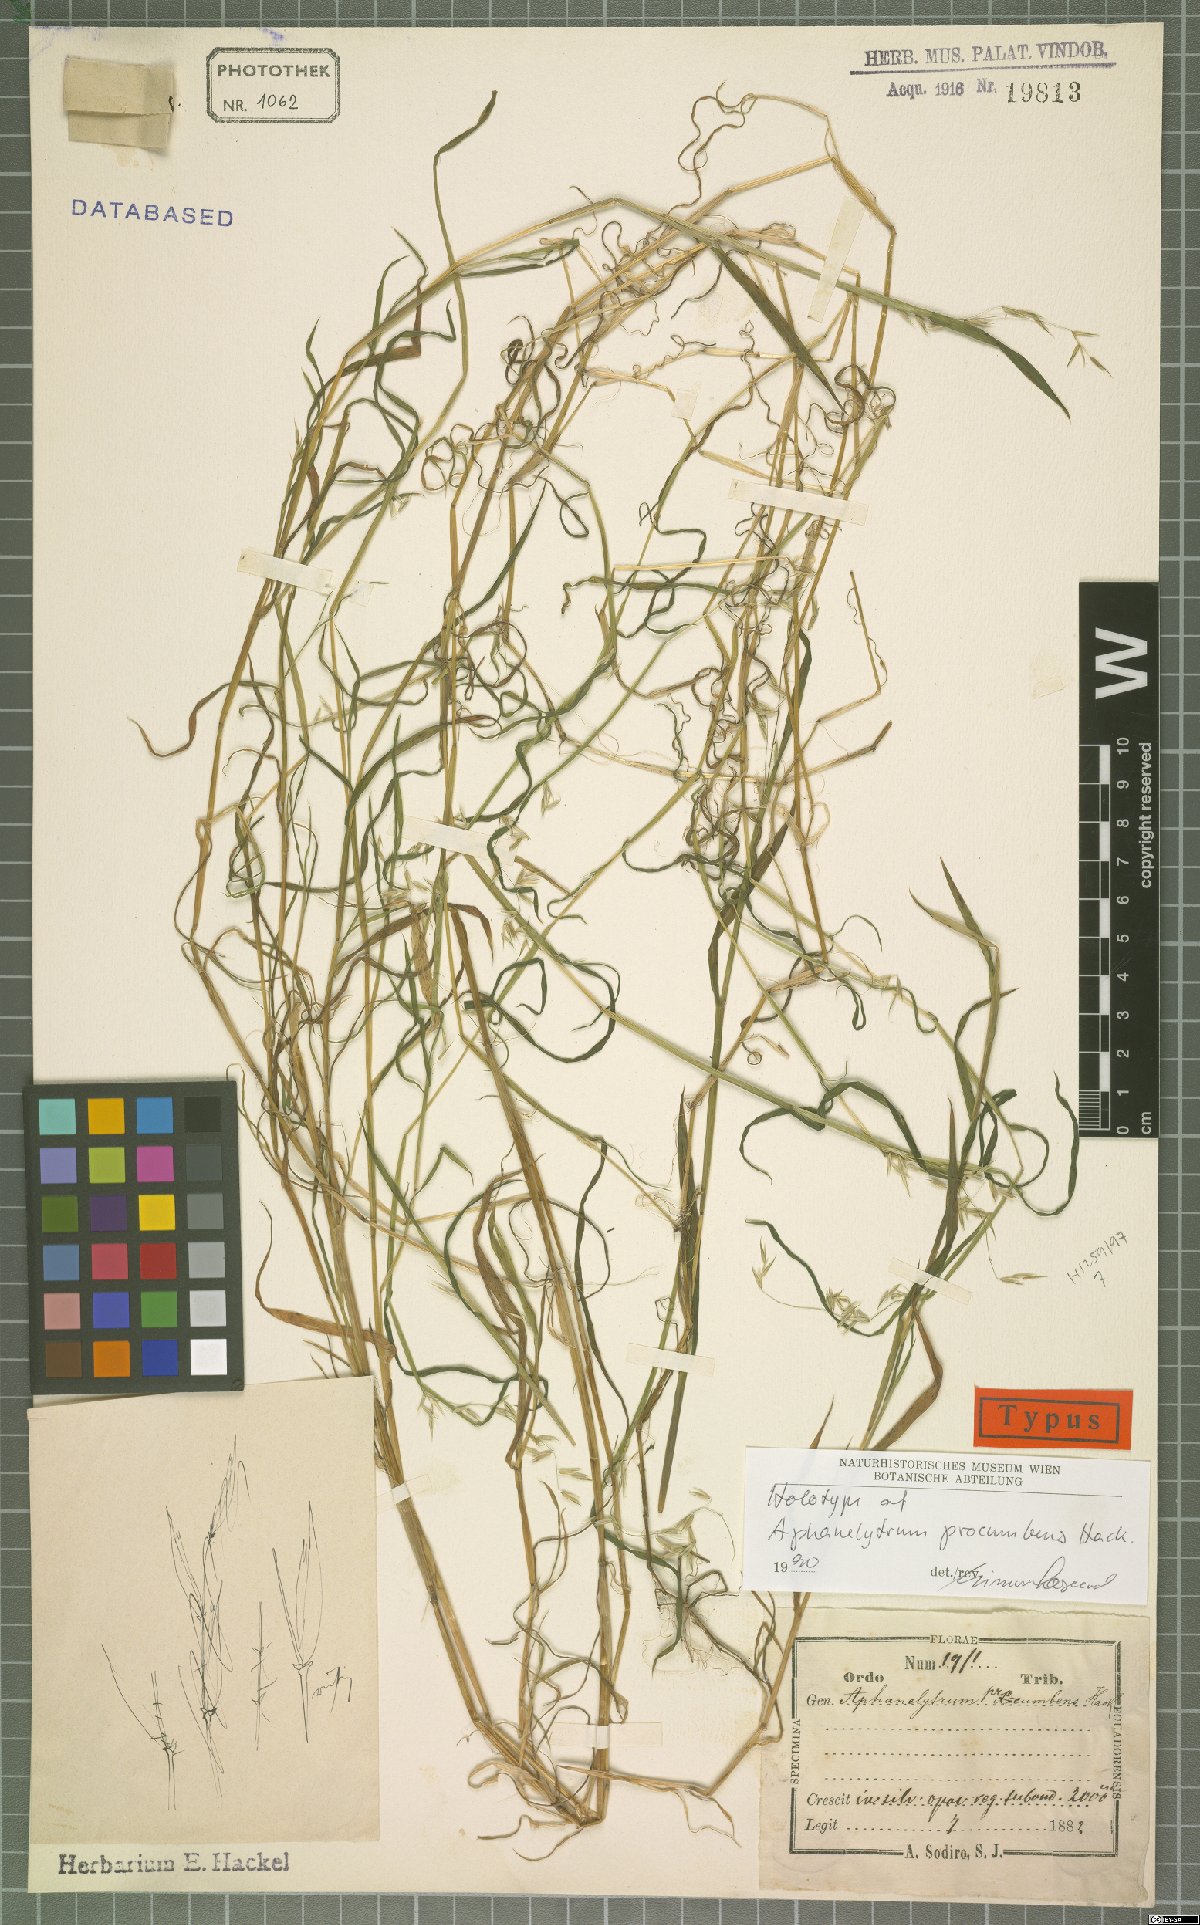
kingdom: Plantae
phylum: Tracheophyta
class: Liliopsida
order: Poales
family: Poaceae
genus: Poa
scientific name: Poa hitchcockiana
